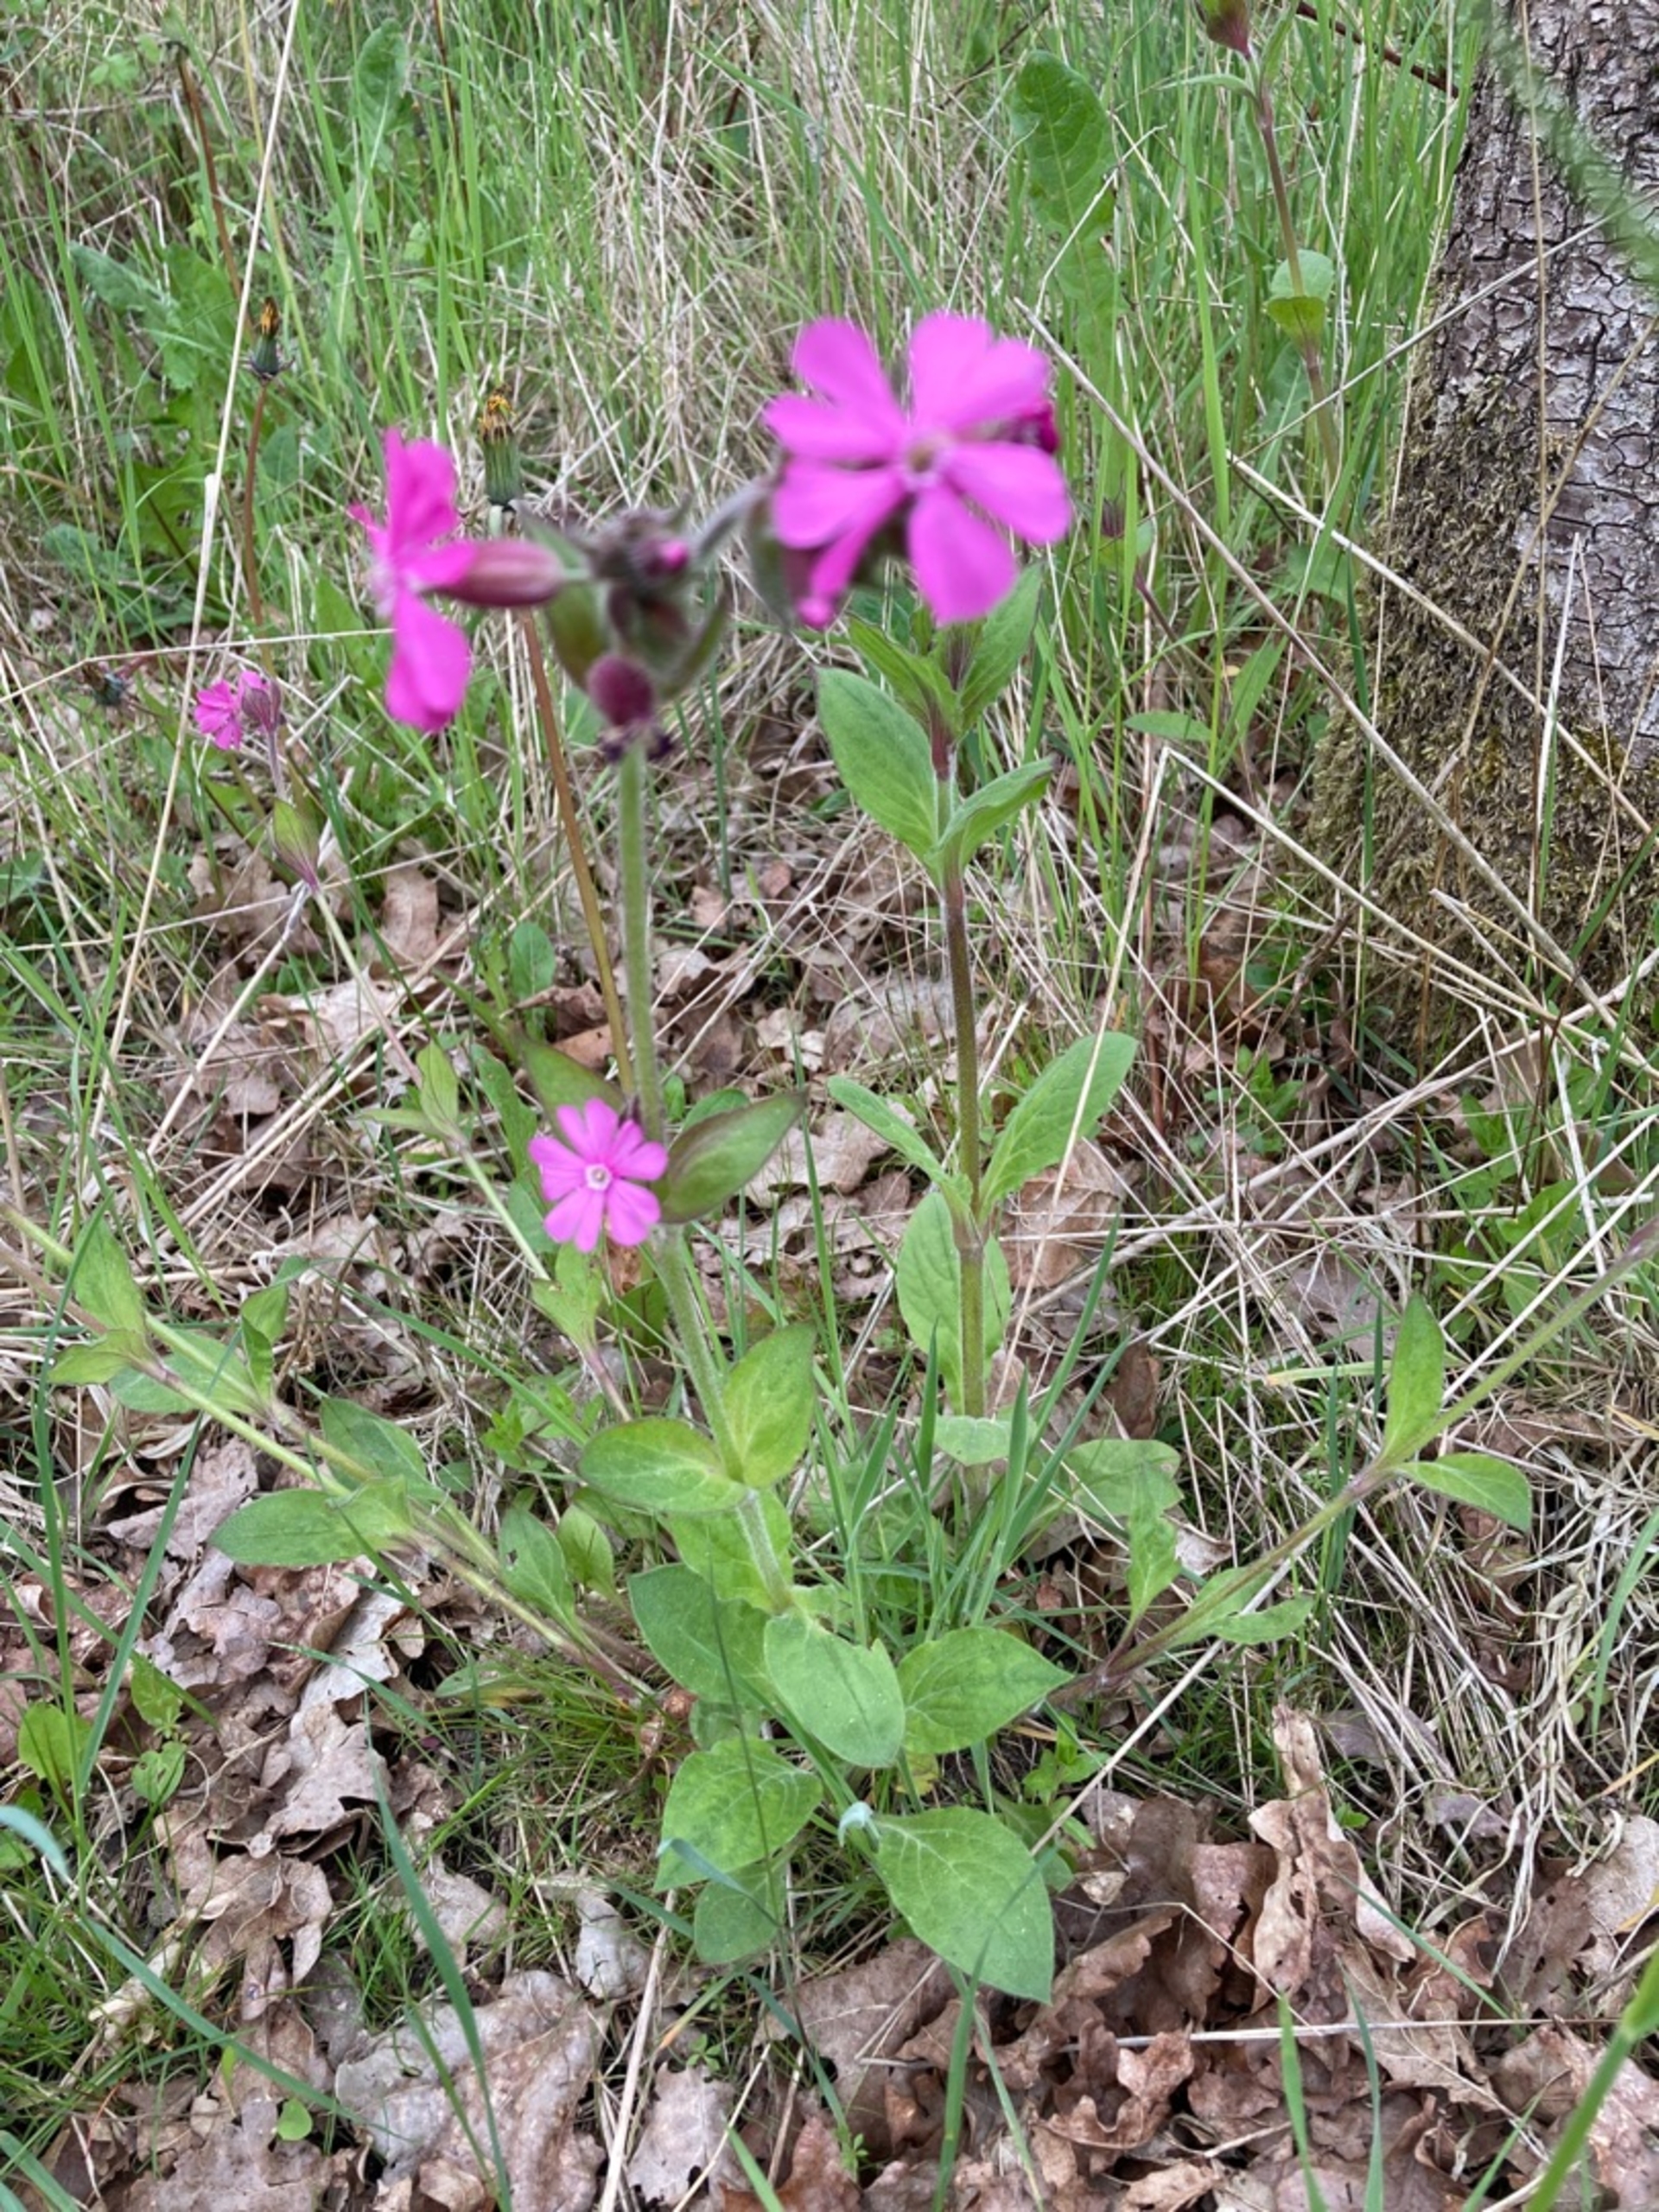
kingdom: Plantae
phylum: Tracheophyta
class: Magnoliopsida
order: Caryophyllales
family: Caryophyllaceae
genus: Silene
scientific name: Silene dioica
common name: Dagpragtstjerne
